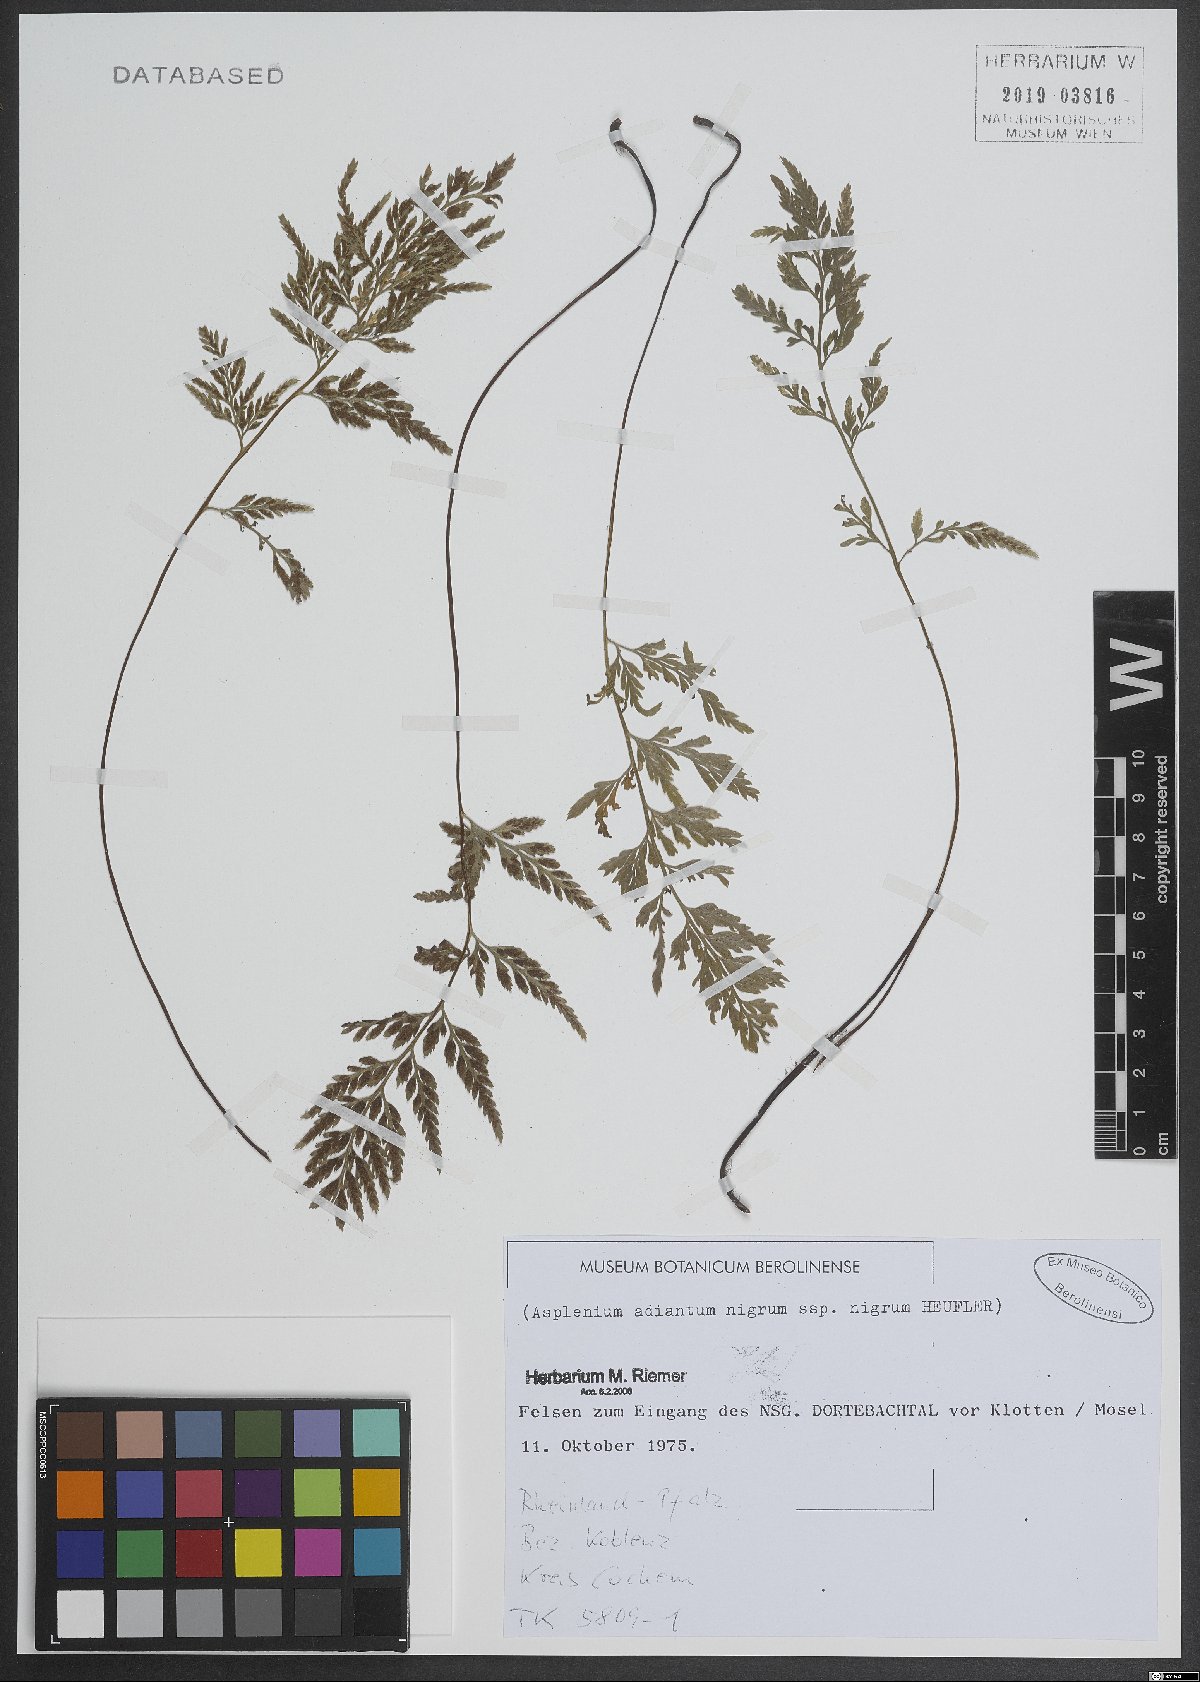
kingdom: Plantae
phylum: Tracheophyta
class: Polypodiopsida
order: Polypodiales
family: Aspleniaceae
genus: Asplenium
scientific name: Asplenium adiantum-nigrum
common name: Black spleenwort
